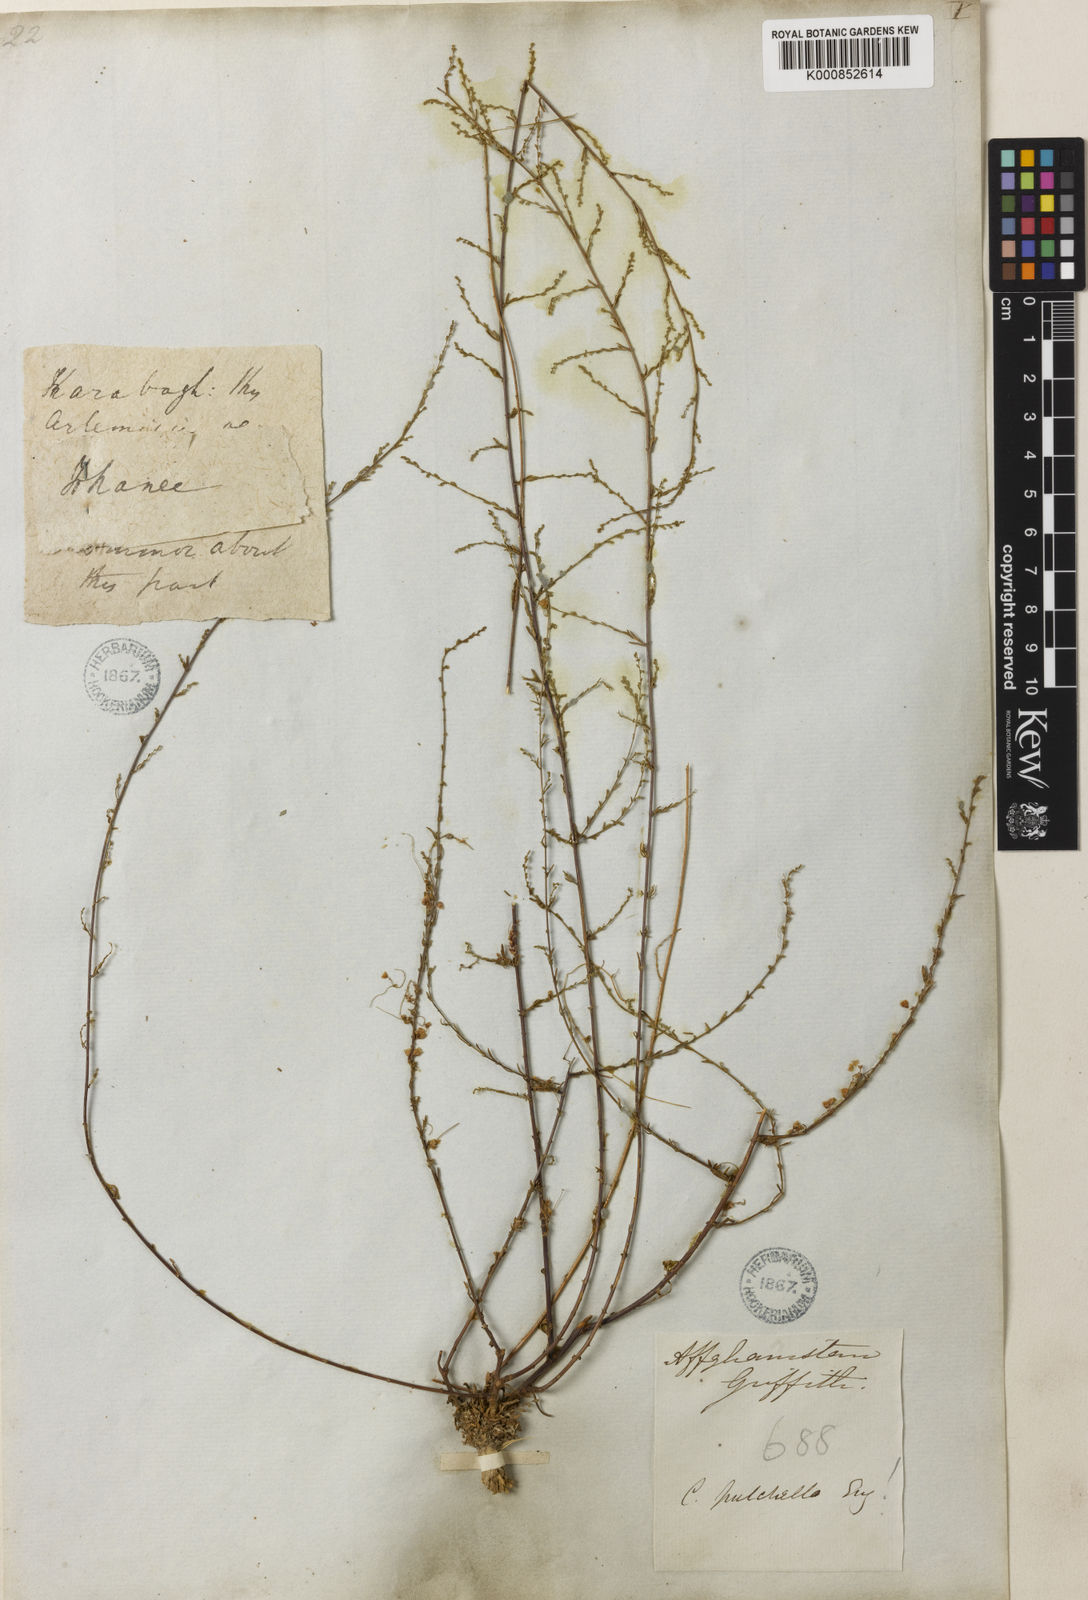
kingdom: Plantae
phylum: Tracheophyta
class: Magnoliopsida
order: Solanales
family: Convolvulaceae
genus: Cuscuta
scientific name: Cuscuta pulchella
